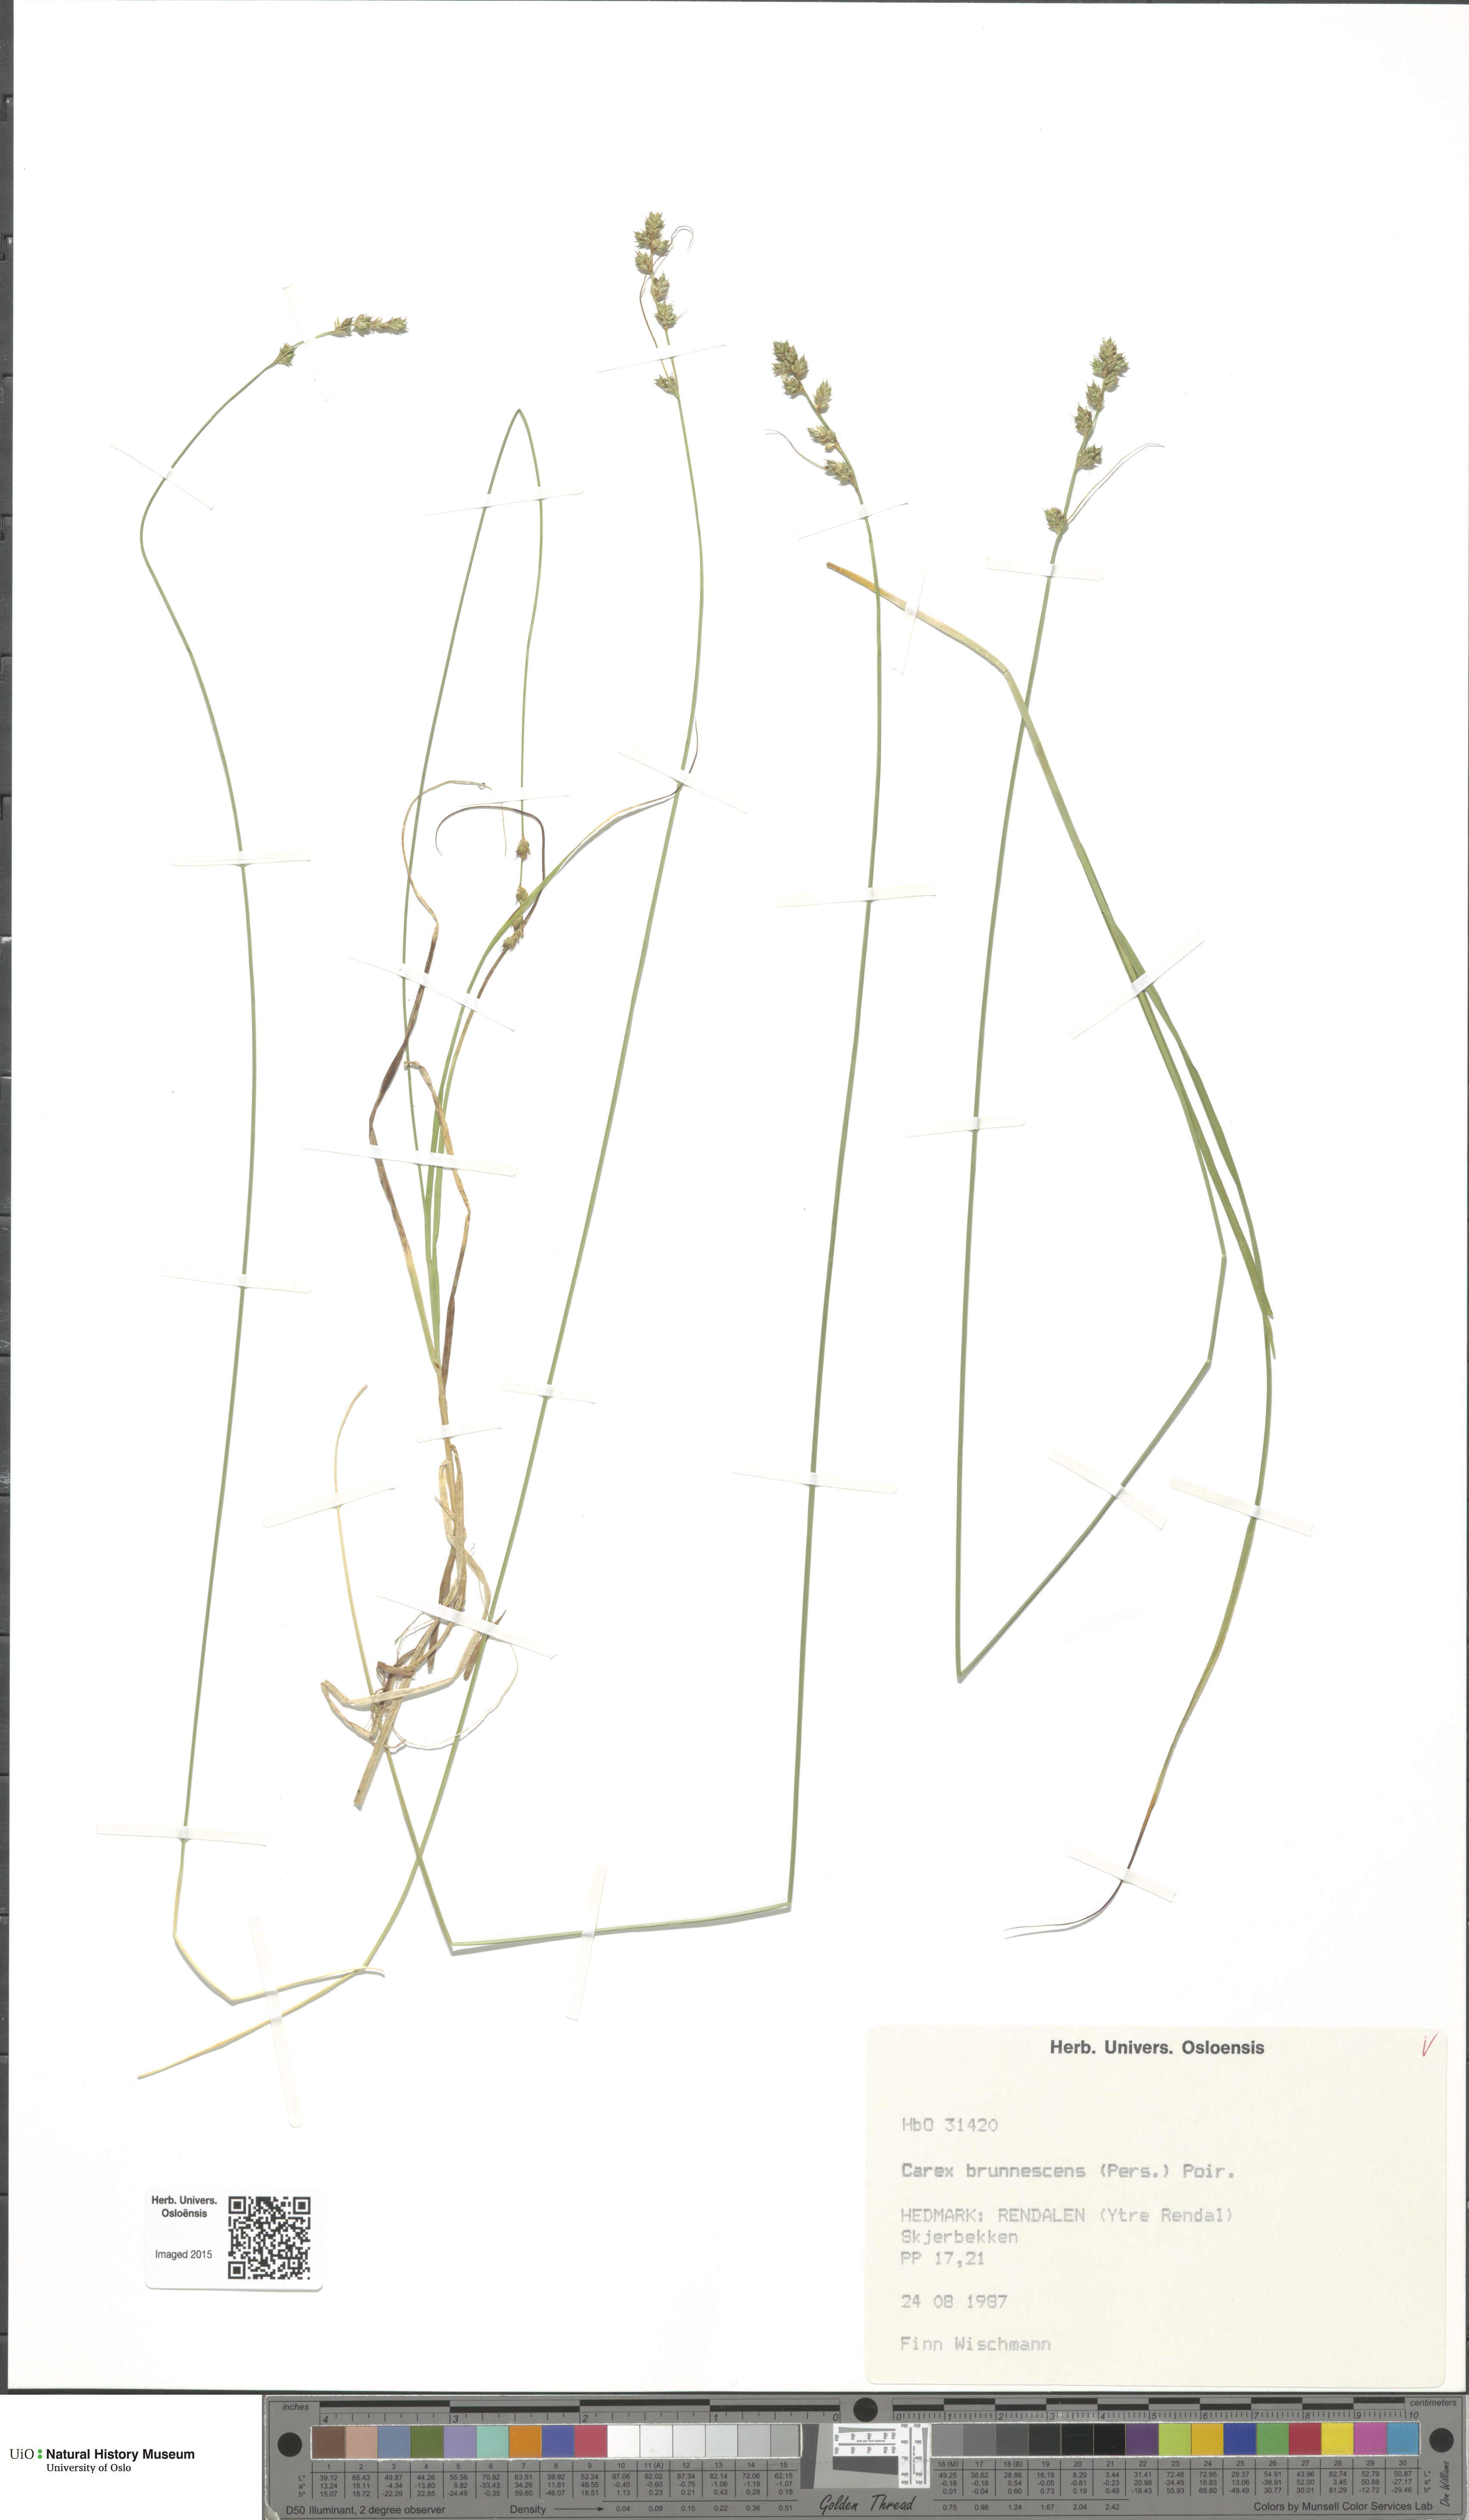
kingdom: Plantae
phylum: Tracheophyta
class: Liliopsida
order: Poales
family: Cyperaceae
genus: Carex
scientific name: Carex brunnescens
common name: Brown sedge
